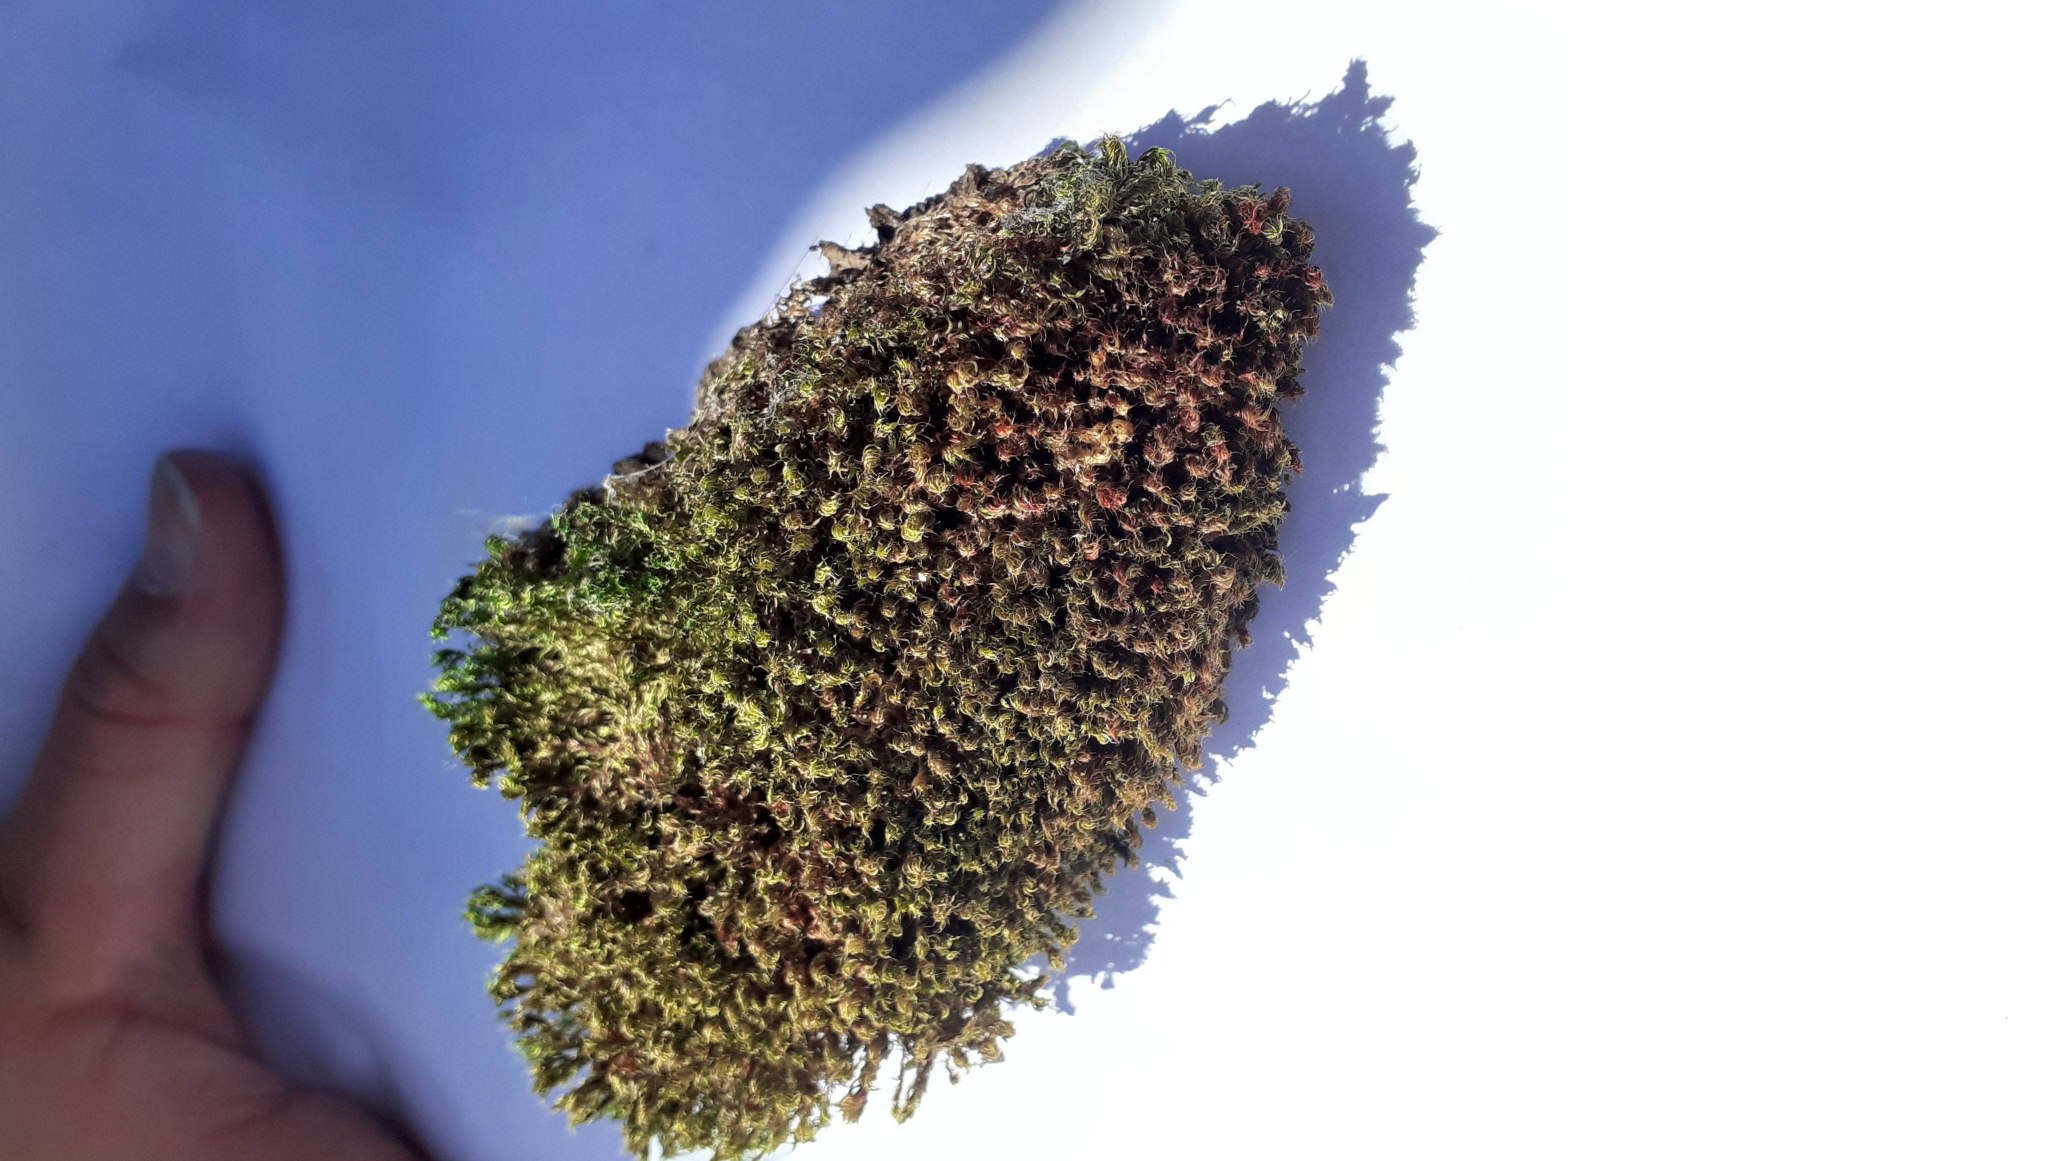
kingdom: Plantae
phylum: Bryophyta
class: Bryopsida
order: Bryales
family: Bryaceae
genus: Rosulabryum
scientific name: Rosulabryum capillare
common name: Hårspidset bryum
